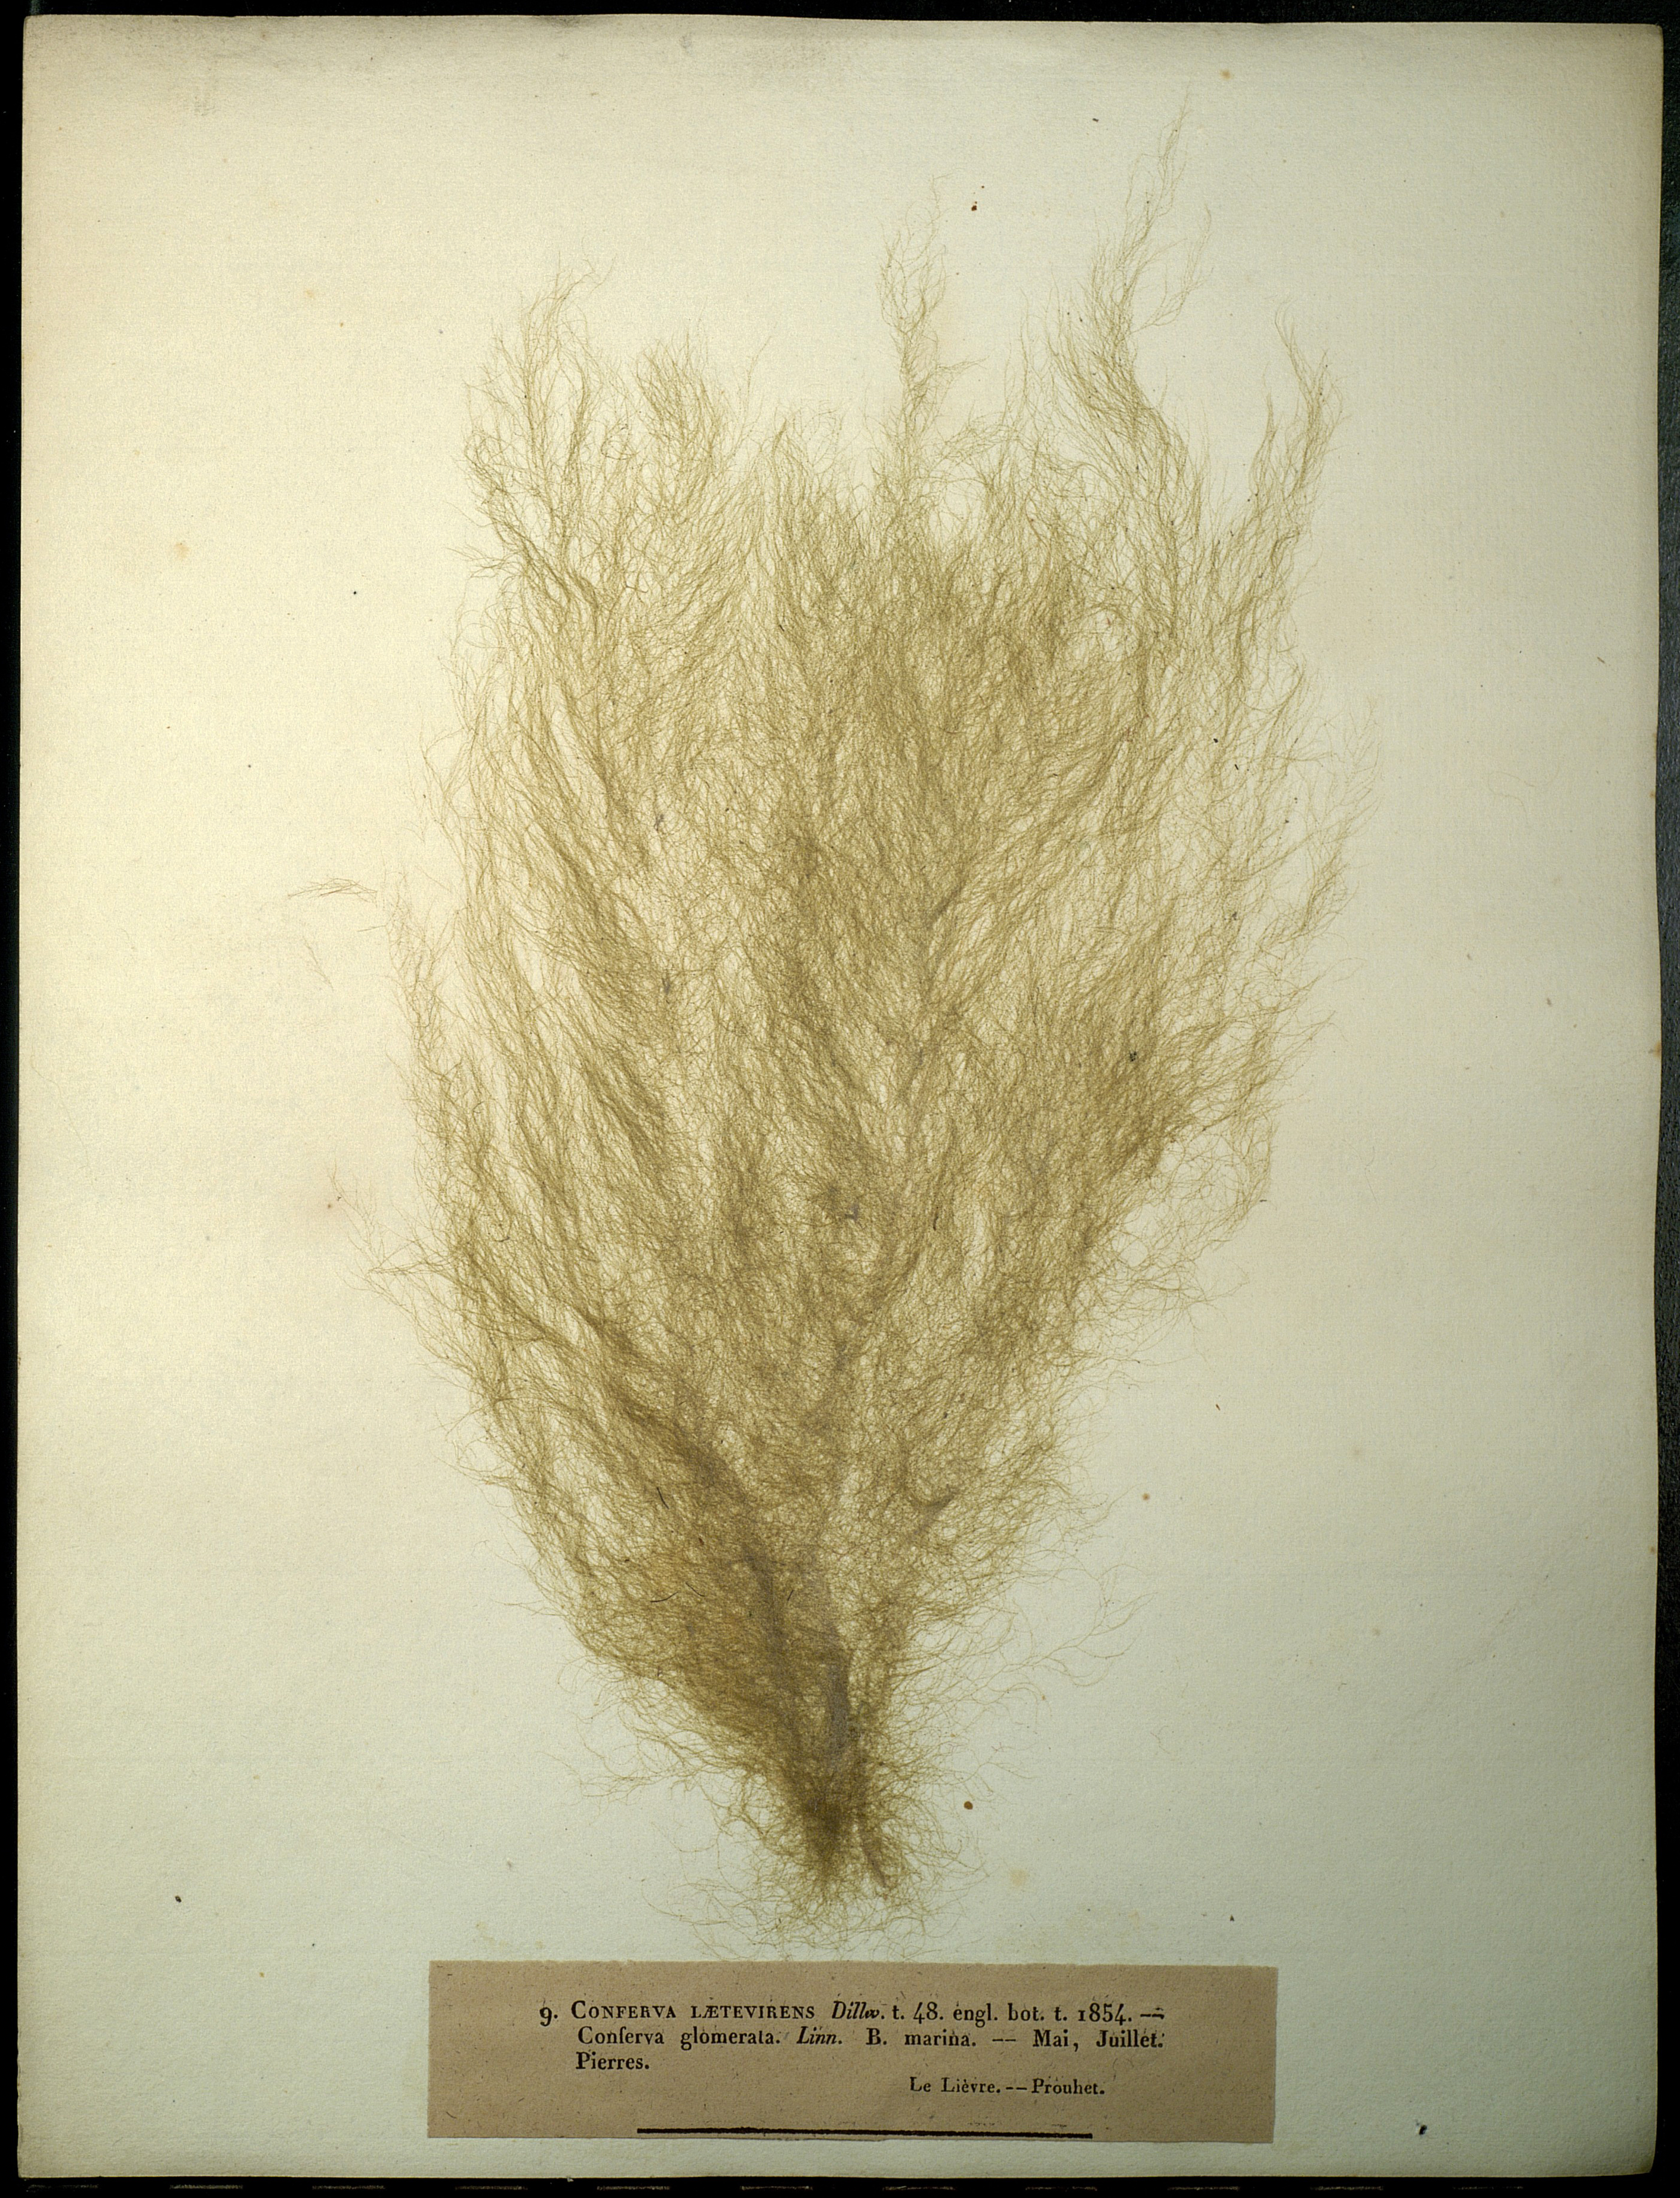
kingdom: Plantae
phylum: Chlorophyta
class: Ulvophyceae
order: Cladophorales
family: Cladophoraceae
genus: Cladophora
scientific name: Cladophora laetevirens
